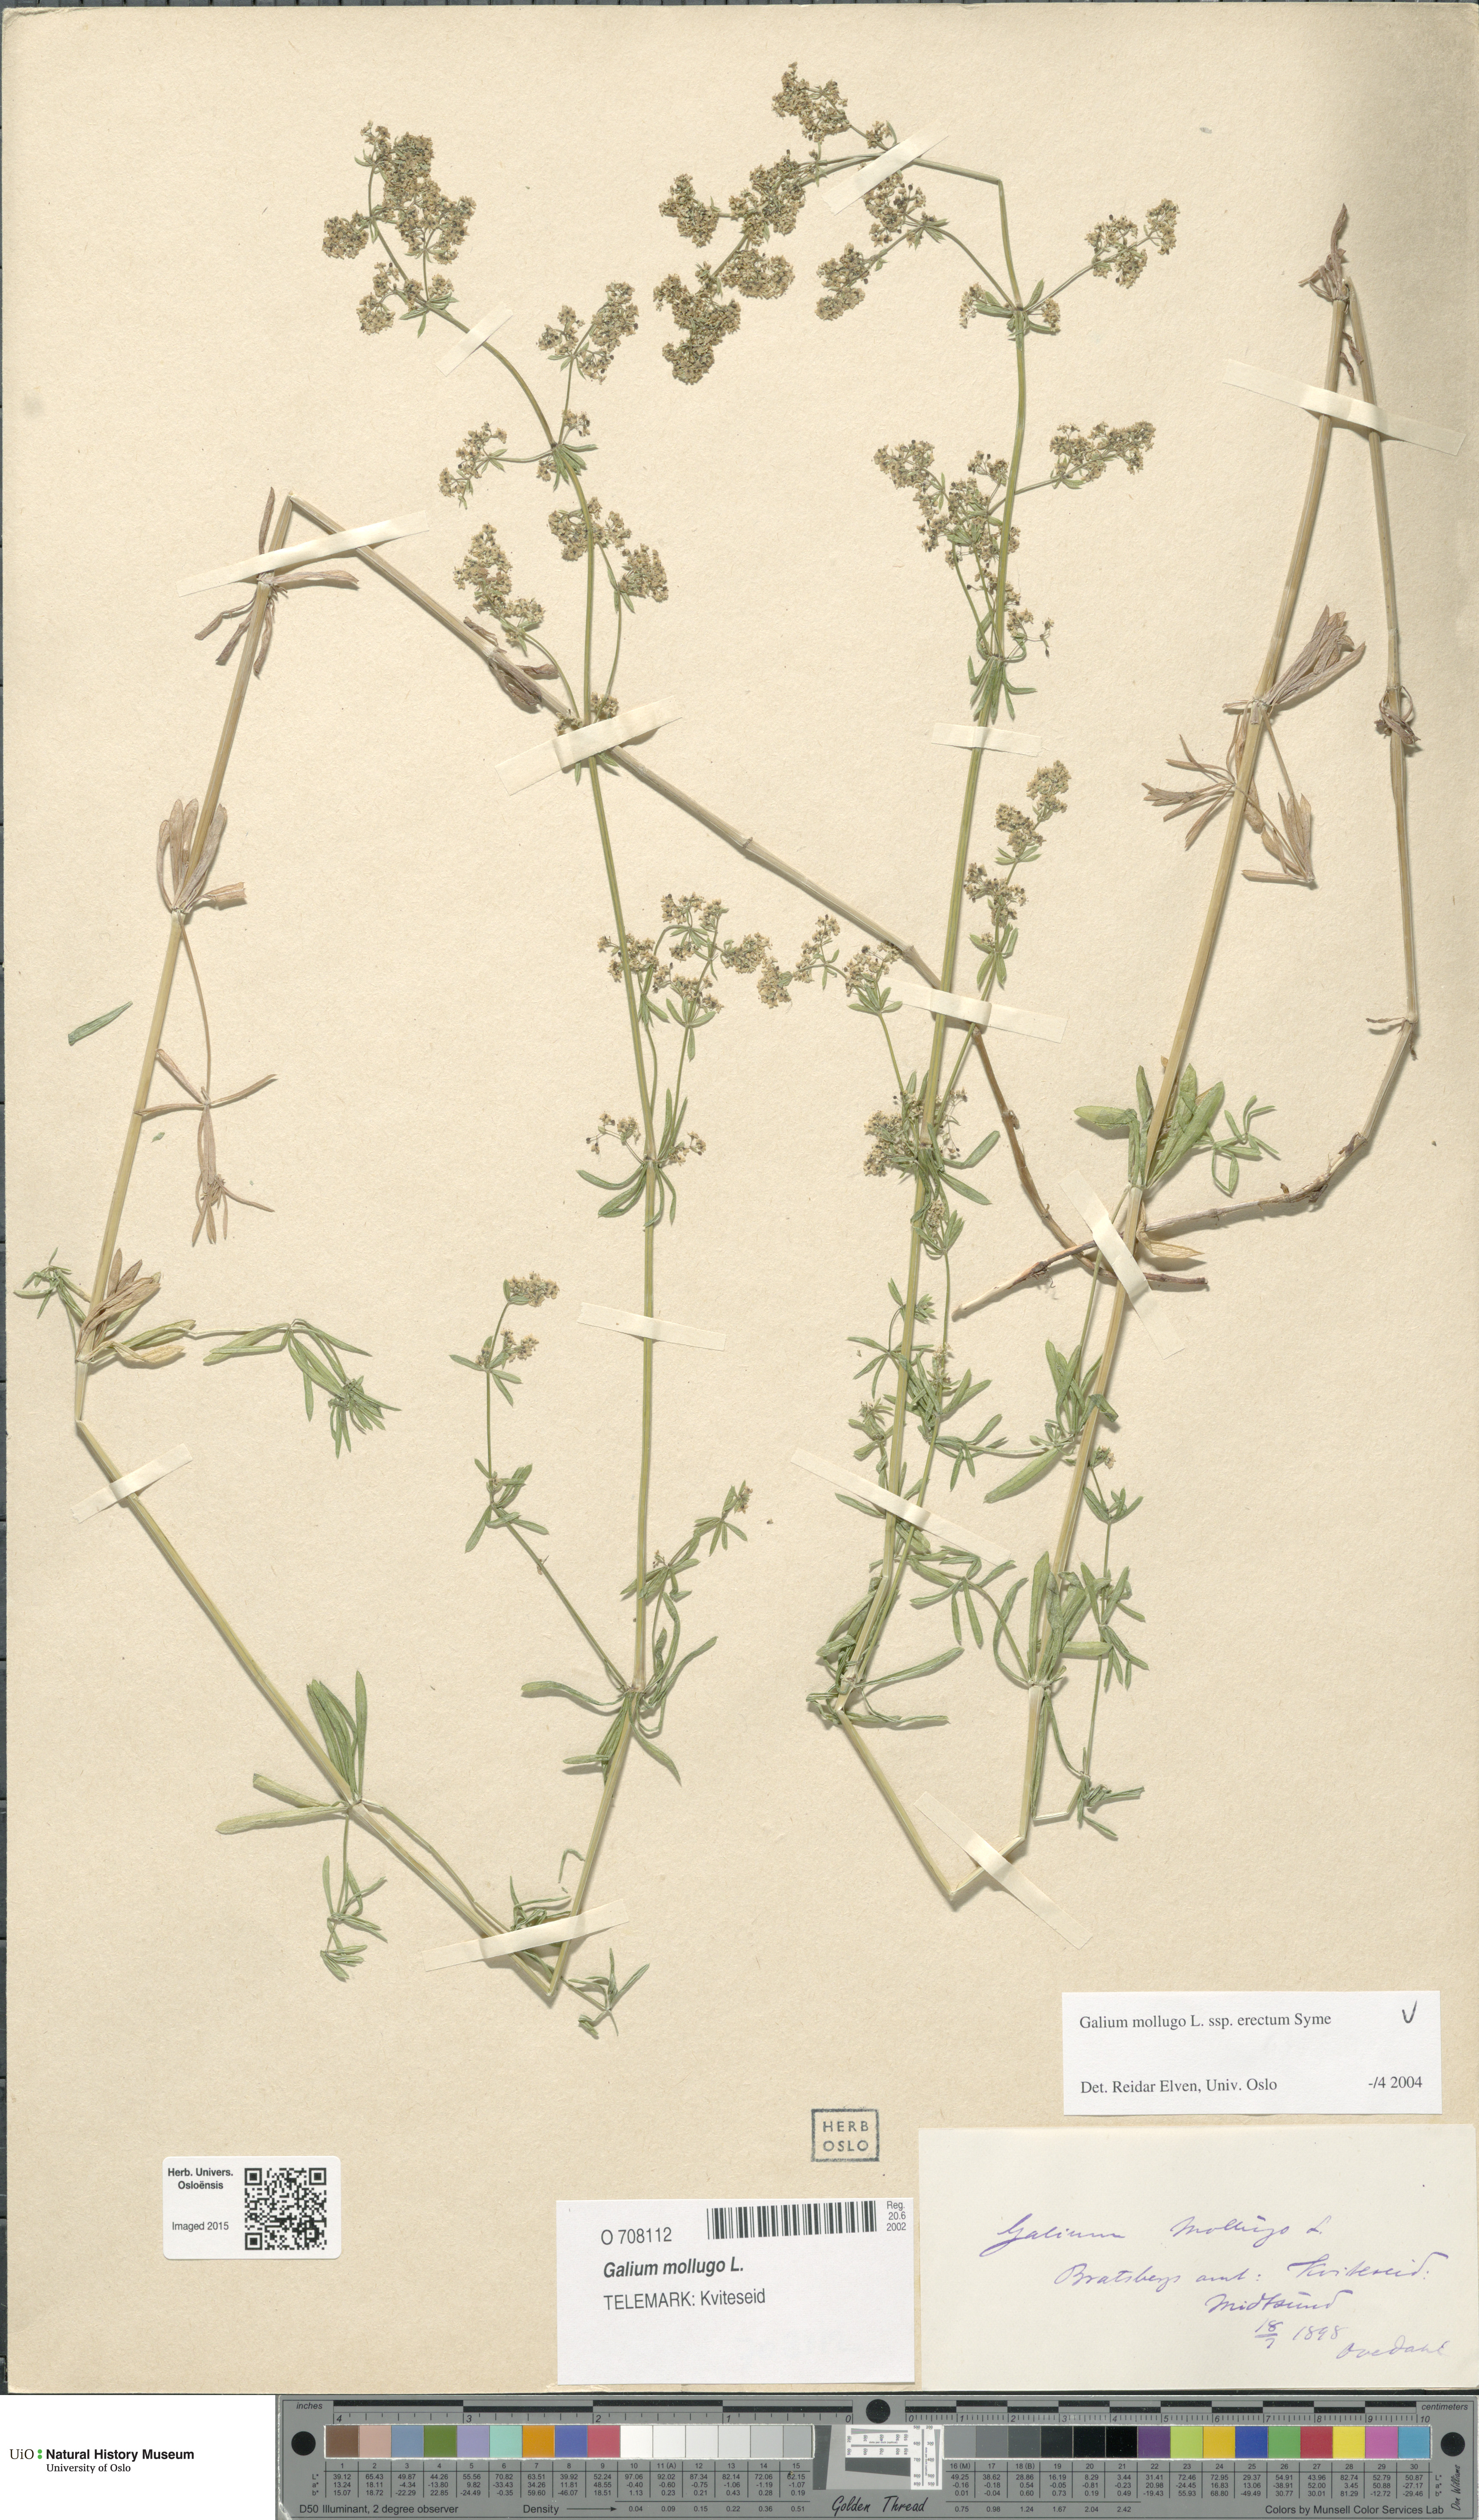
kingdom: Plantae
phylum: Tracheophyta
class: Magnoliopsida
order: Gentianales
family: Rubiaceae
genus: Galium
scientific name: Galium album
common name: White bedstraw
